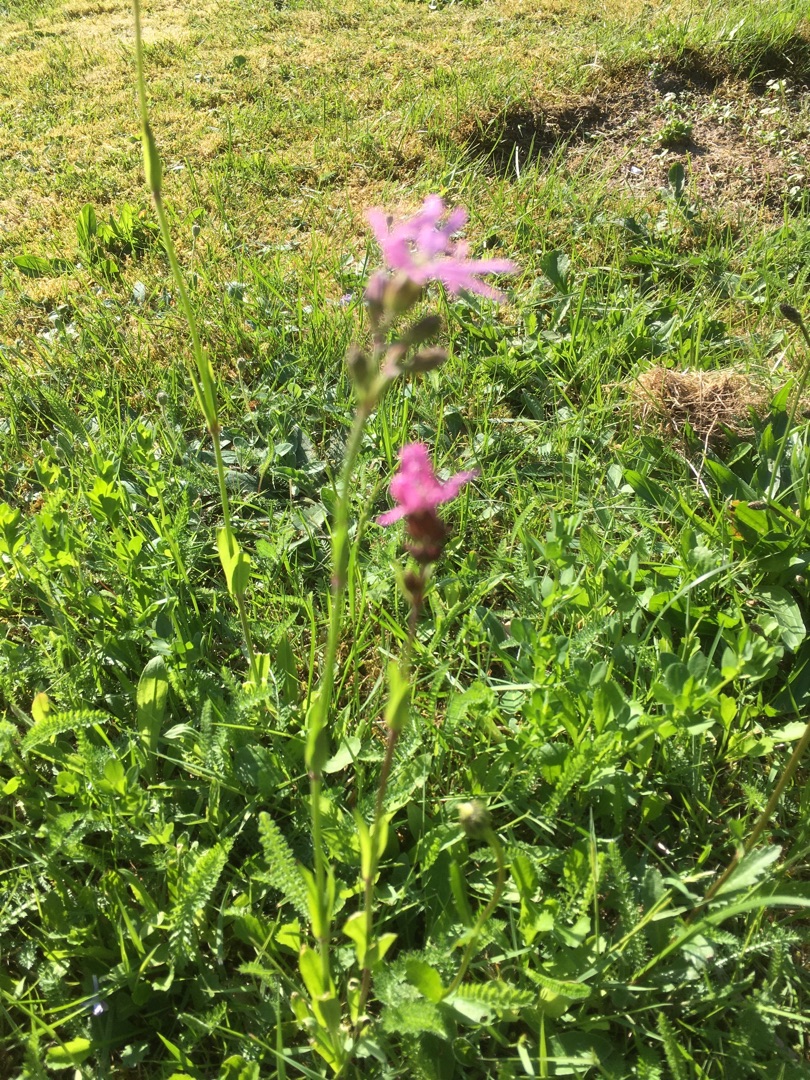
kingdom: Plantae
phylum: Tracheophyta
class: Magnoliopsida
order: Caryophyllales
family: Caryophyllaceae
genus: Silene
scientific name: Silene flos-cuculi
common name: Trævlekrone
